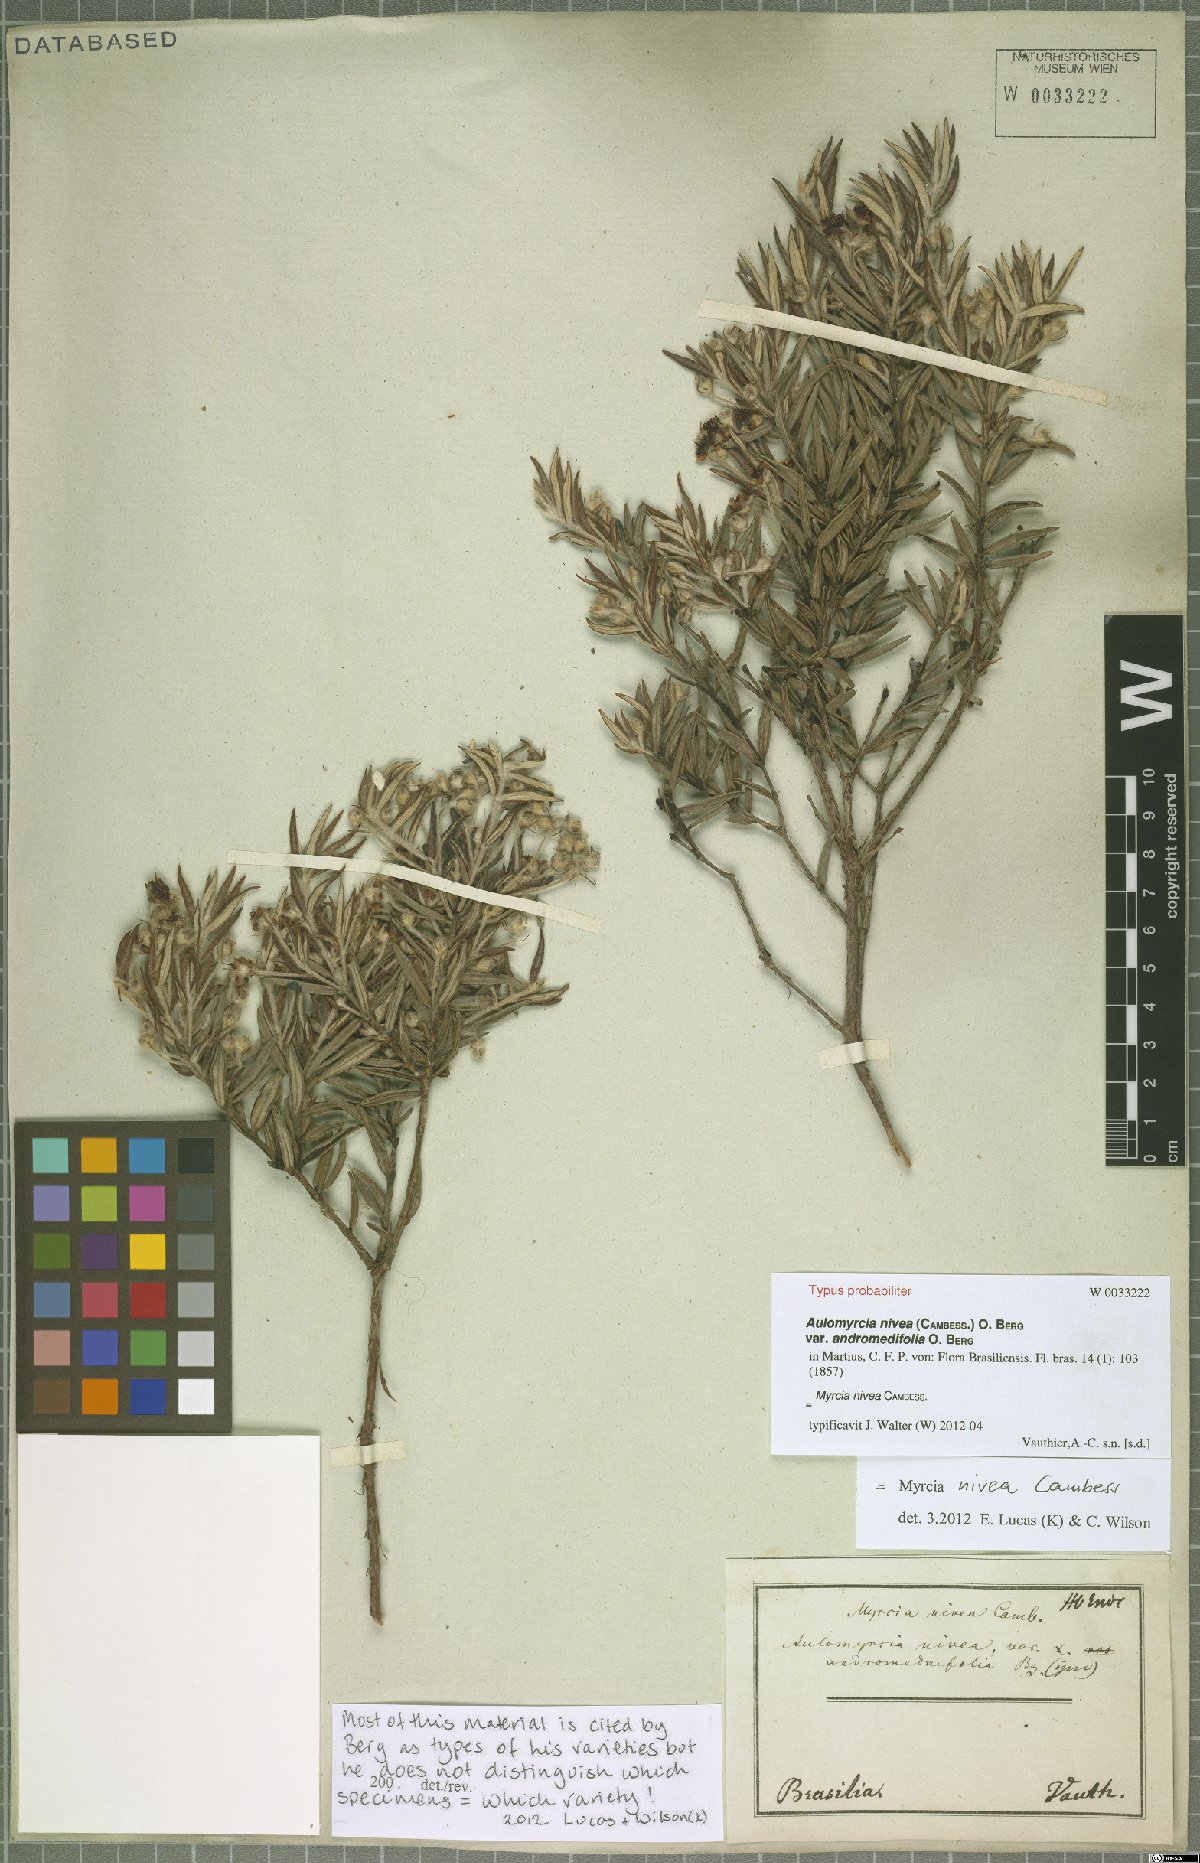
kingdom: Plantae
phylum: Tracheophyta
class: Magnoliopsida
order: Myrtales
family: Myrtaceae
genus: Myrcia
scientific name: Myrcia nivea
